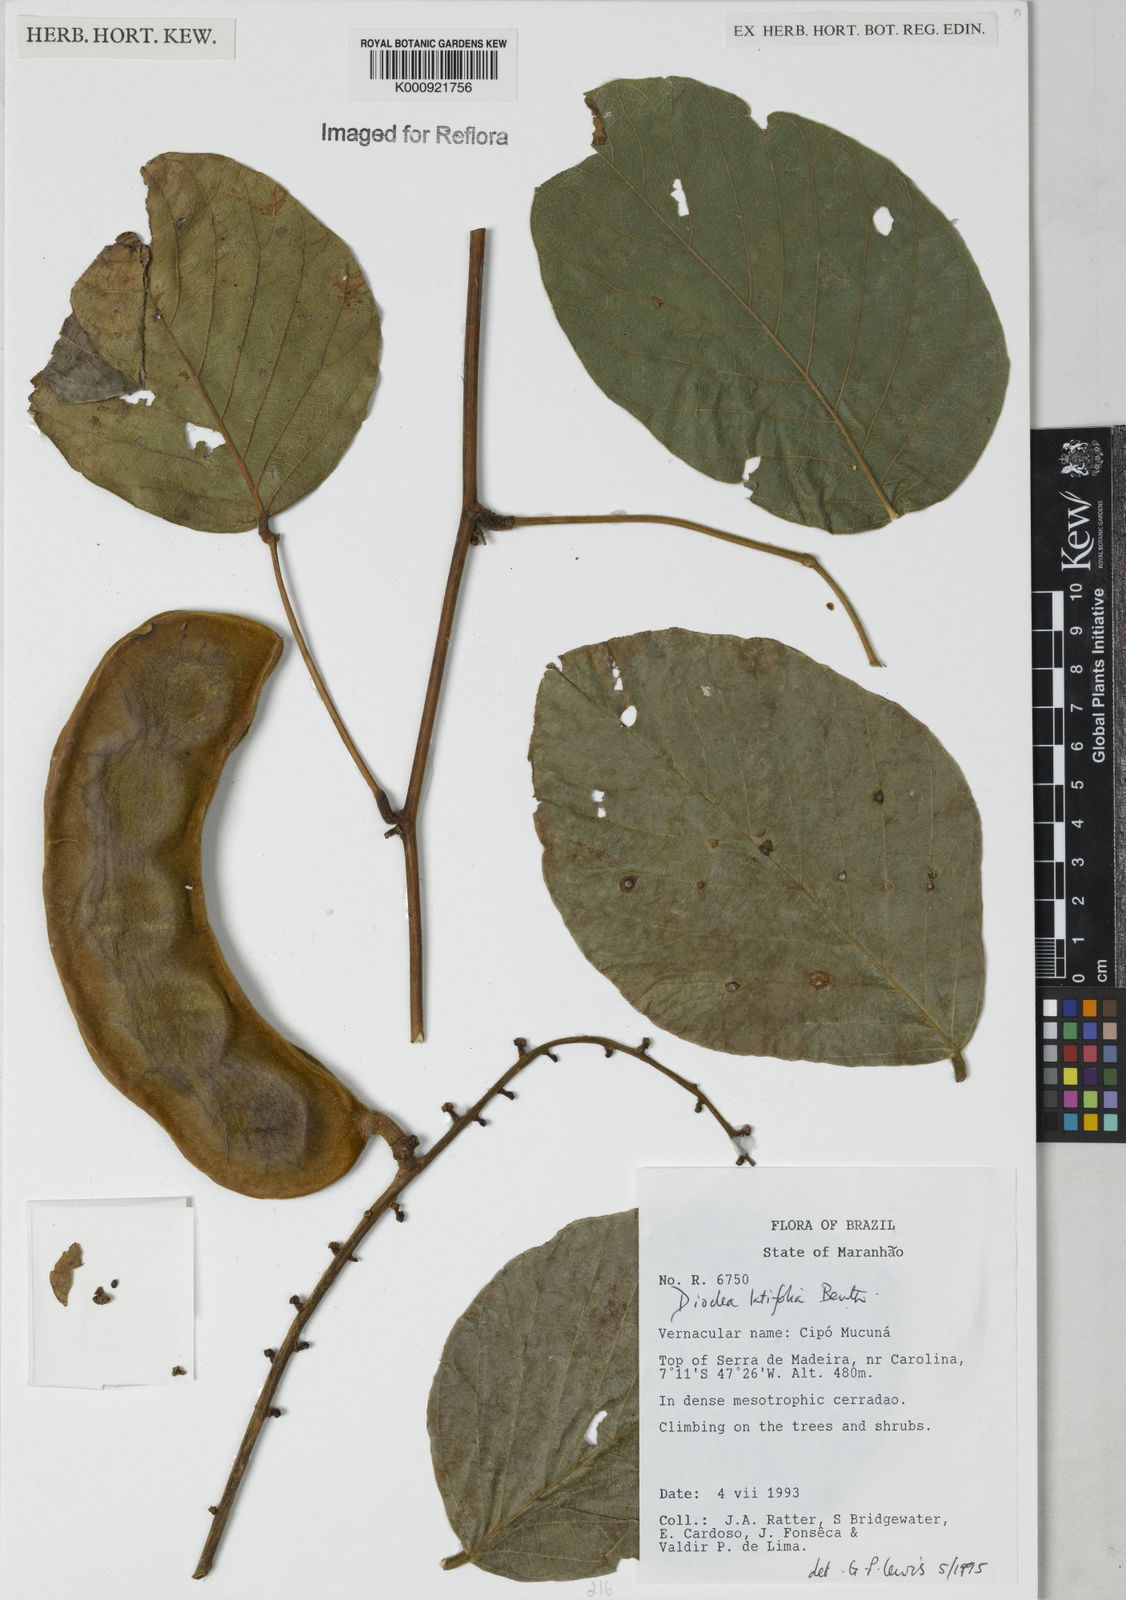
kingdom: Plantae
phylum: Tracheophyta
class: Magnoliopsida
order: Fabales
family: Fabaceae
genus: Macropsychanthus
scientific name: Macropsychanthus latifolius
